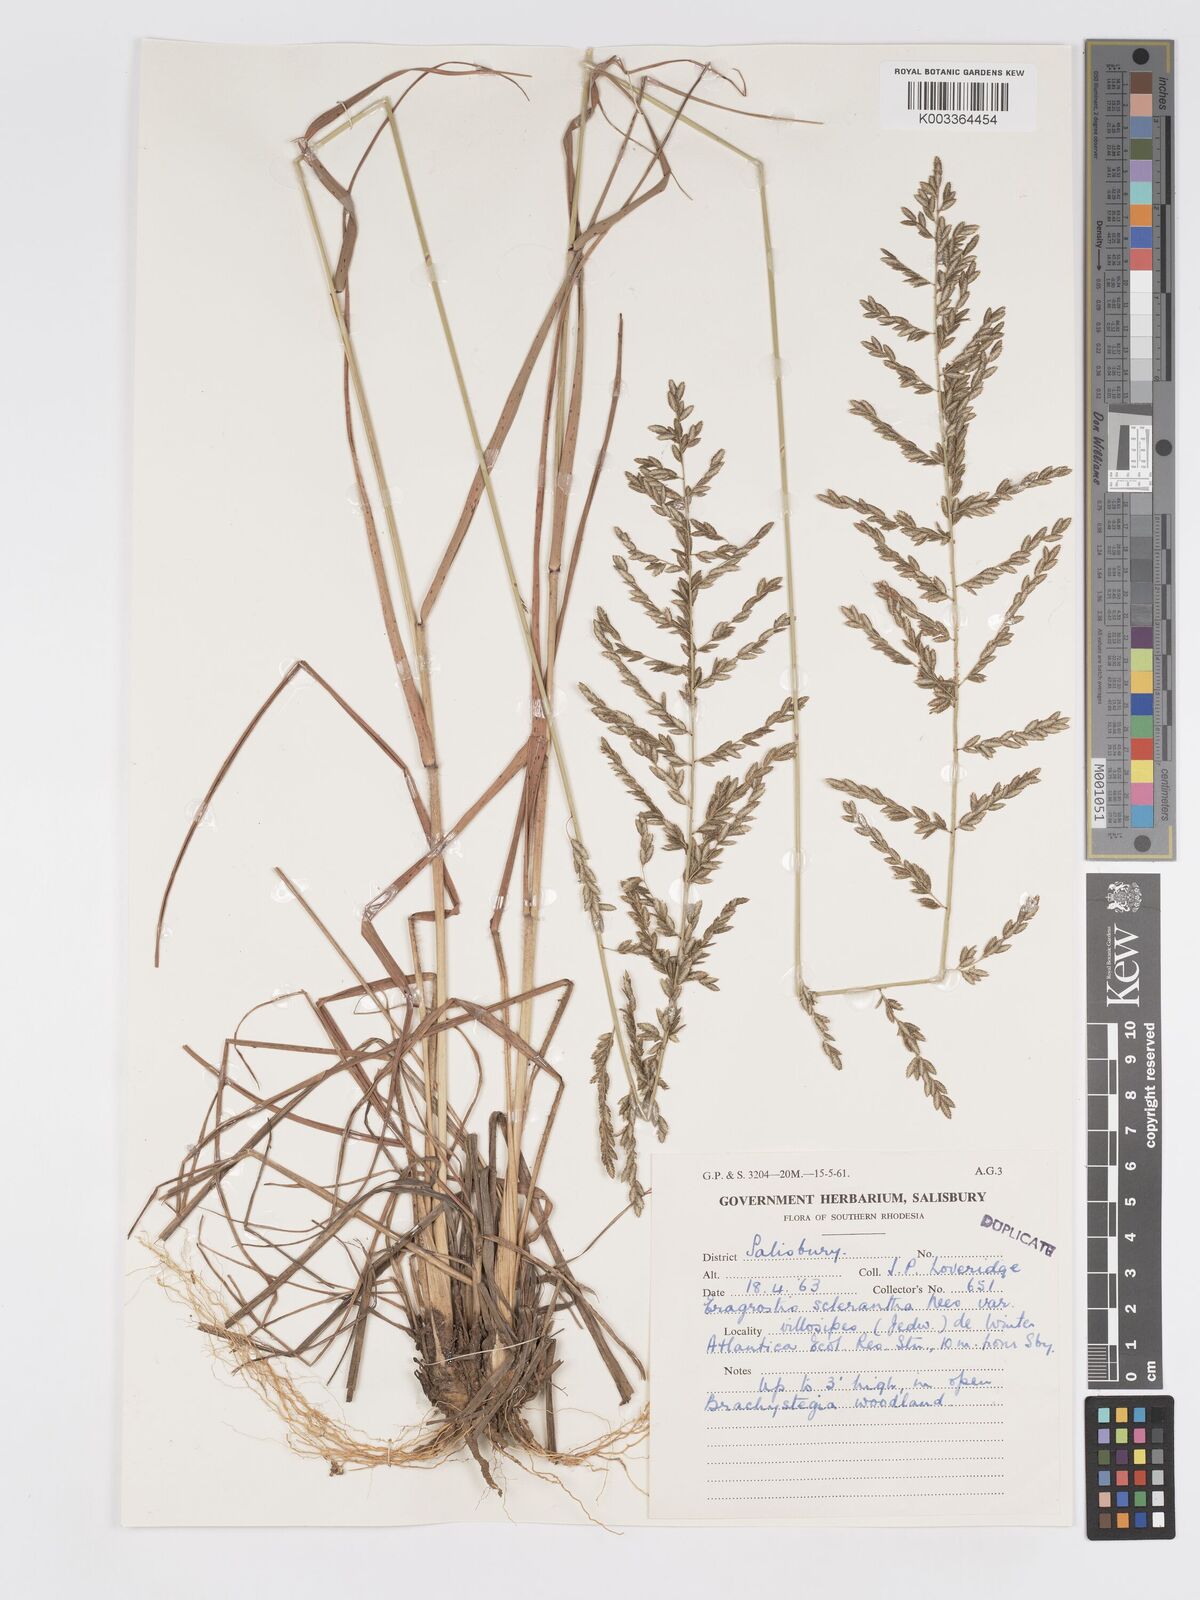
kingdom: Plantae
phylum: Tracheophyta
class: Liliopsida
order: Poales
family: Poaceae
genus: Eragrostis
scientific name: Eragrostis sclerantha
